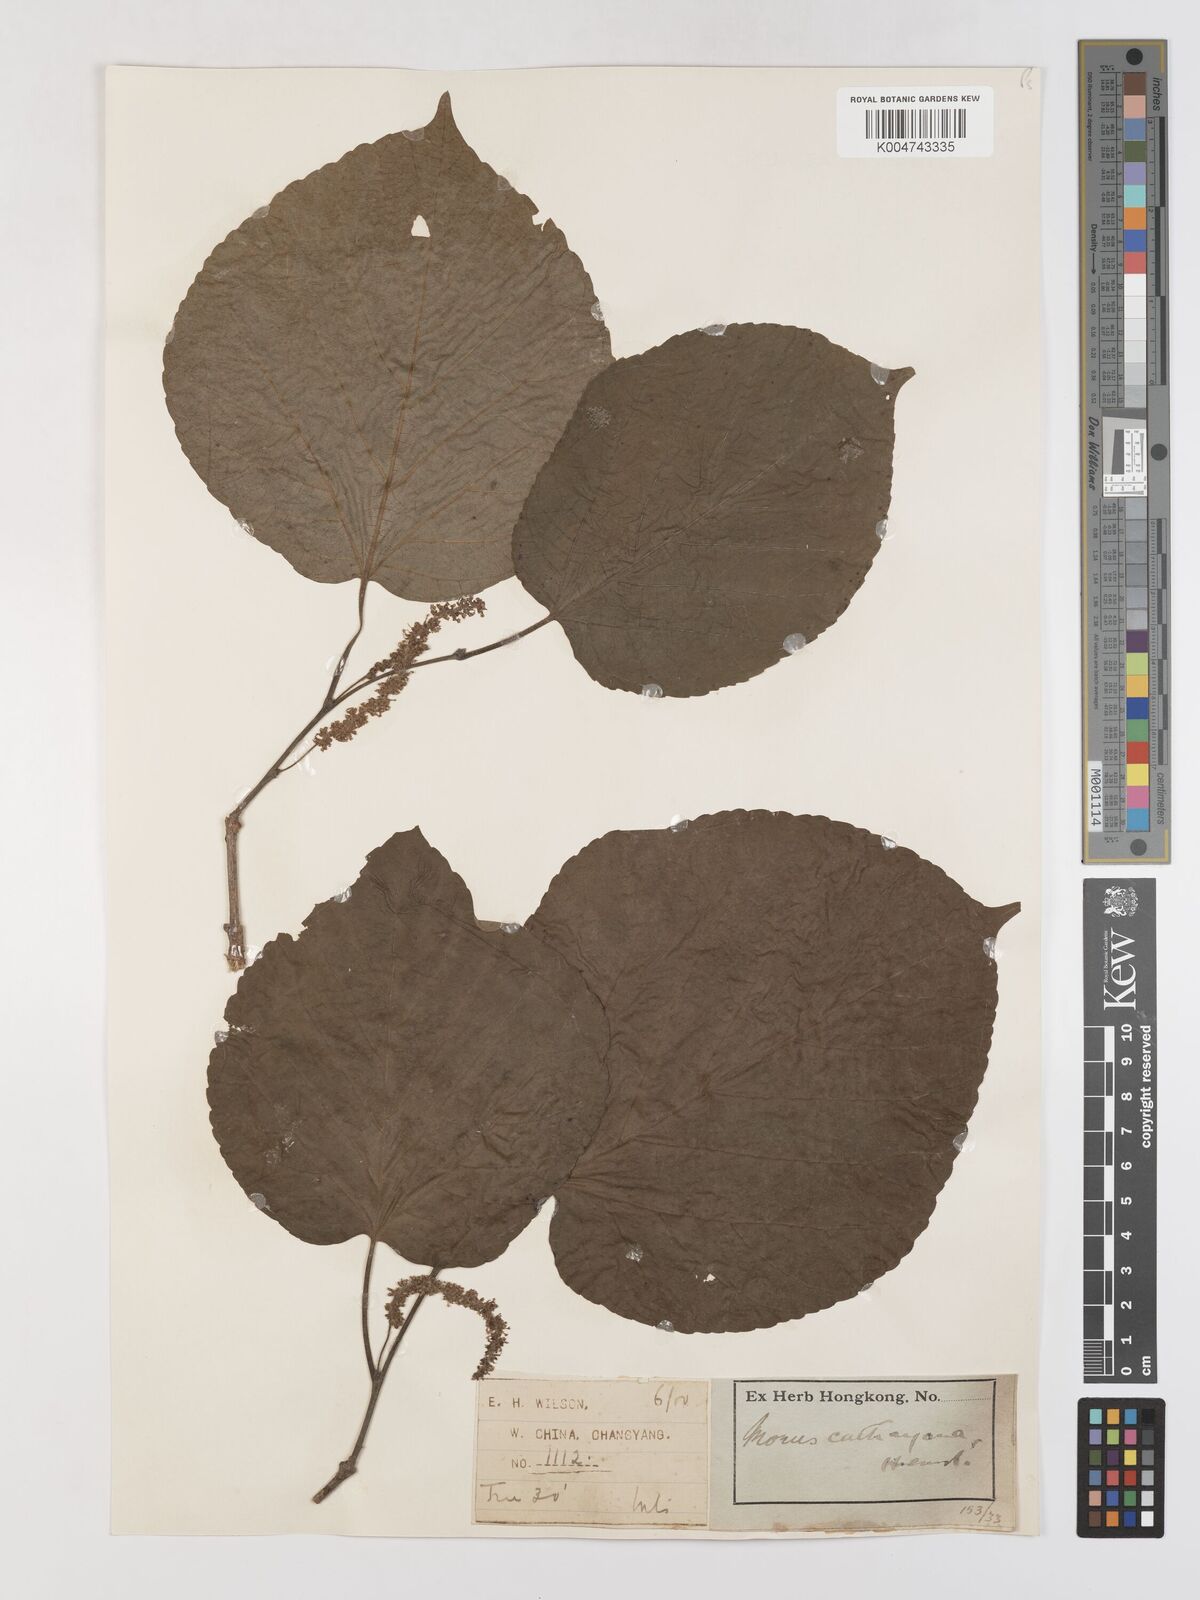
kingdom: Plantae
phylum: Tracheophyta
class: Magnoliopsida
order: Rosales
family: Moraceae
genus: Morus
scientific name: Morus cathayana
